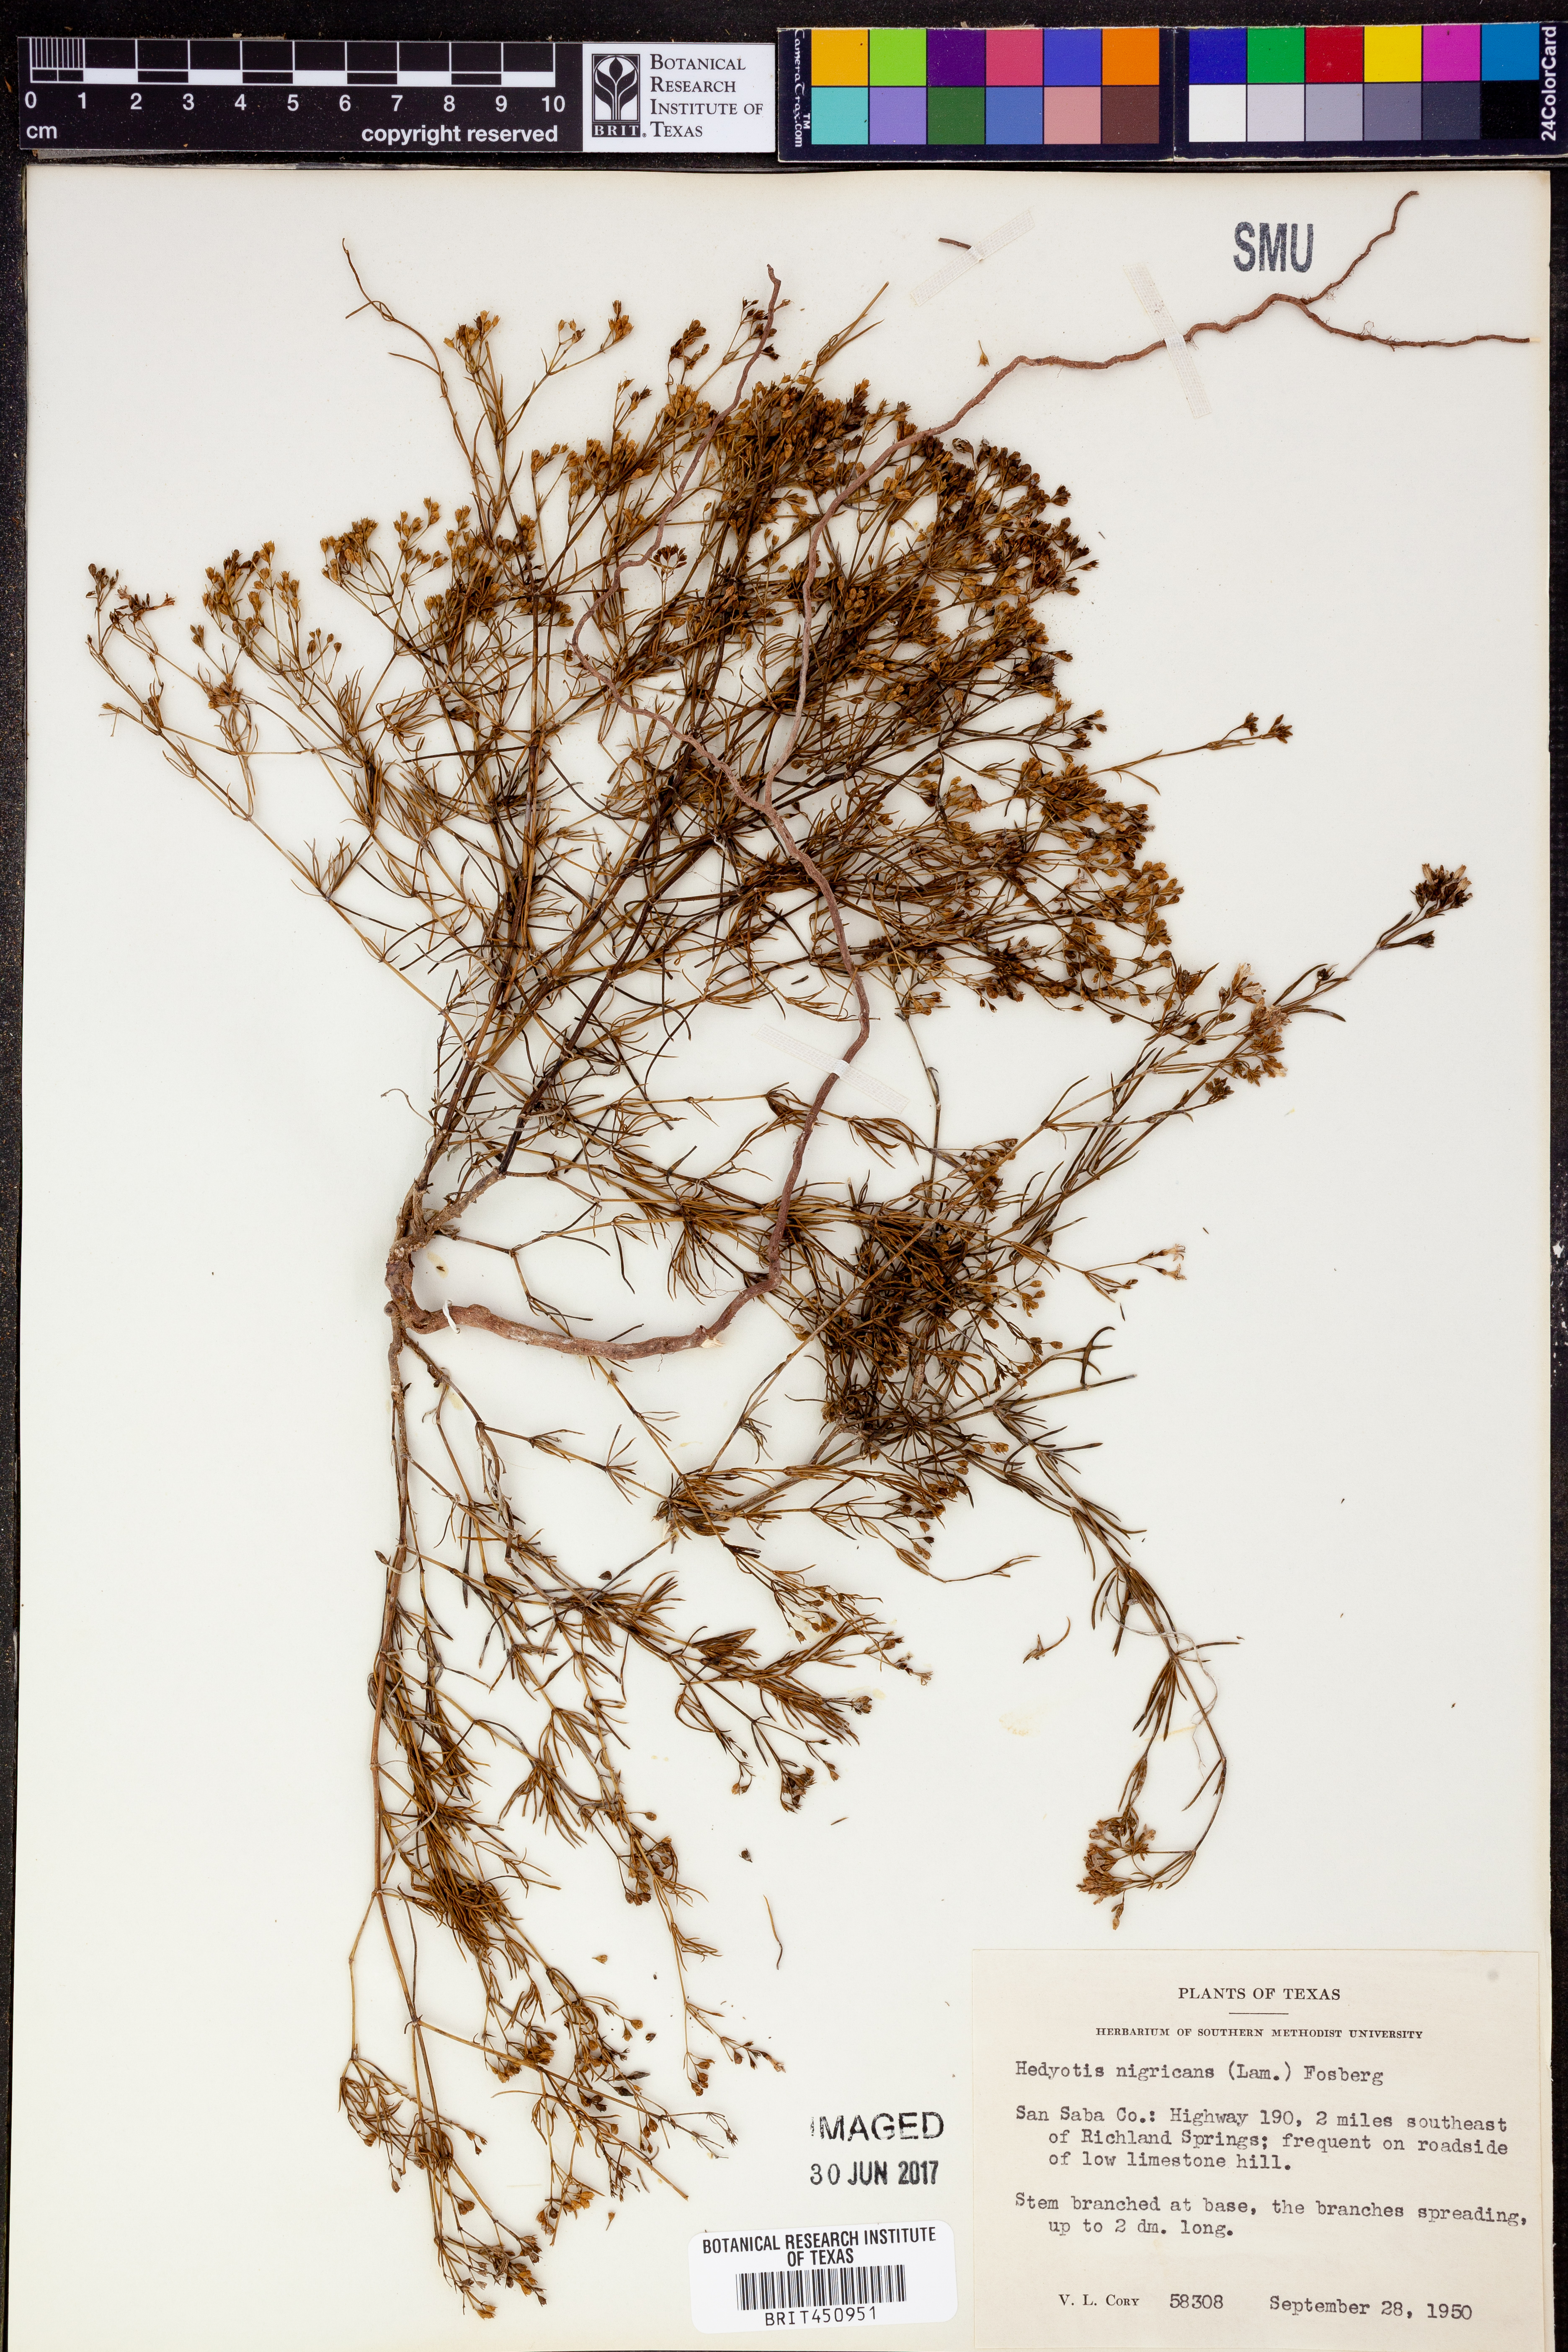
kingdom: Plantae
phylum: Tracheophyta
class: Magnoliopsida
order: Gentianales
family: Rubiaceae
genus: Stenaria
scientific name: Stenaria nigricans
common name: Diamondflowers
